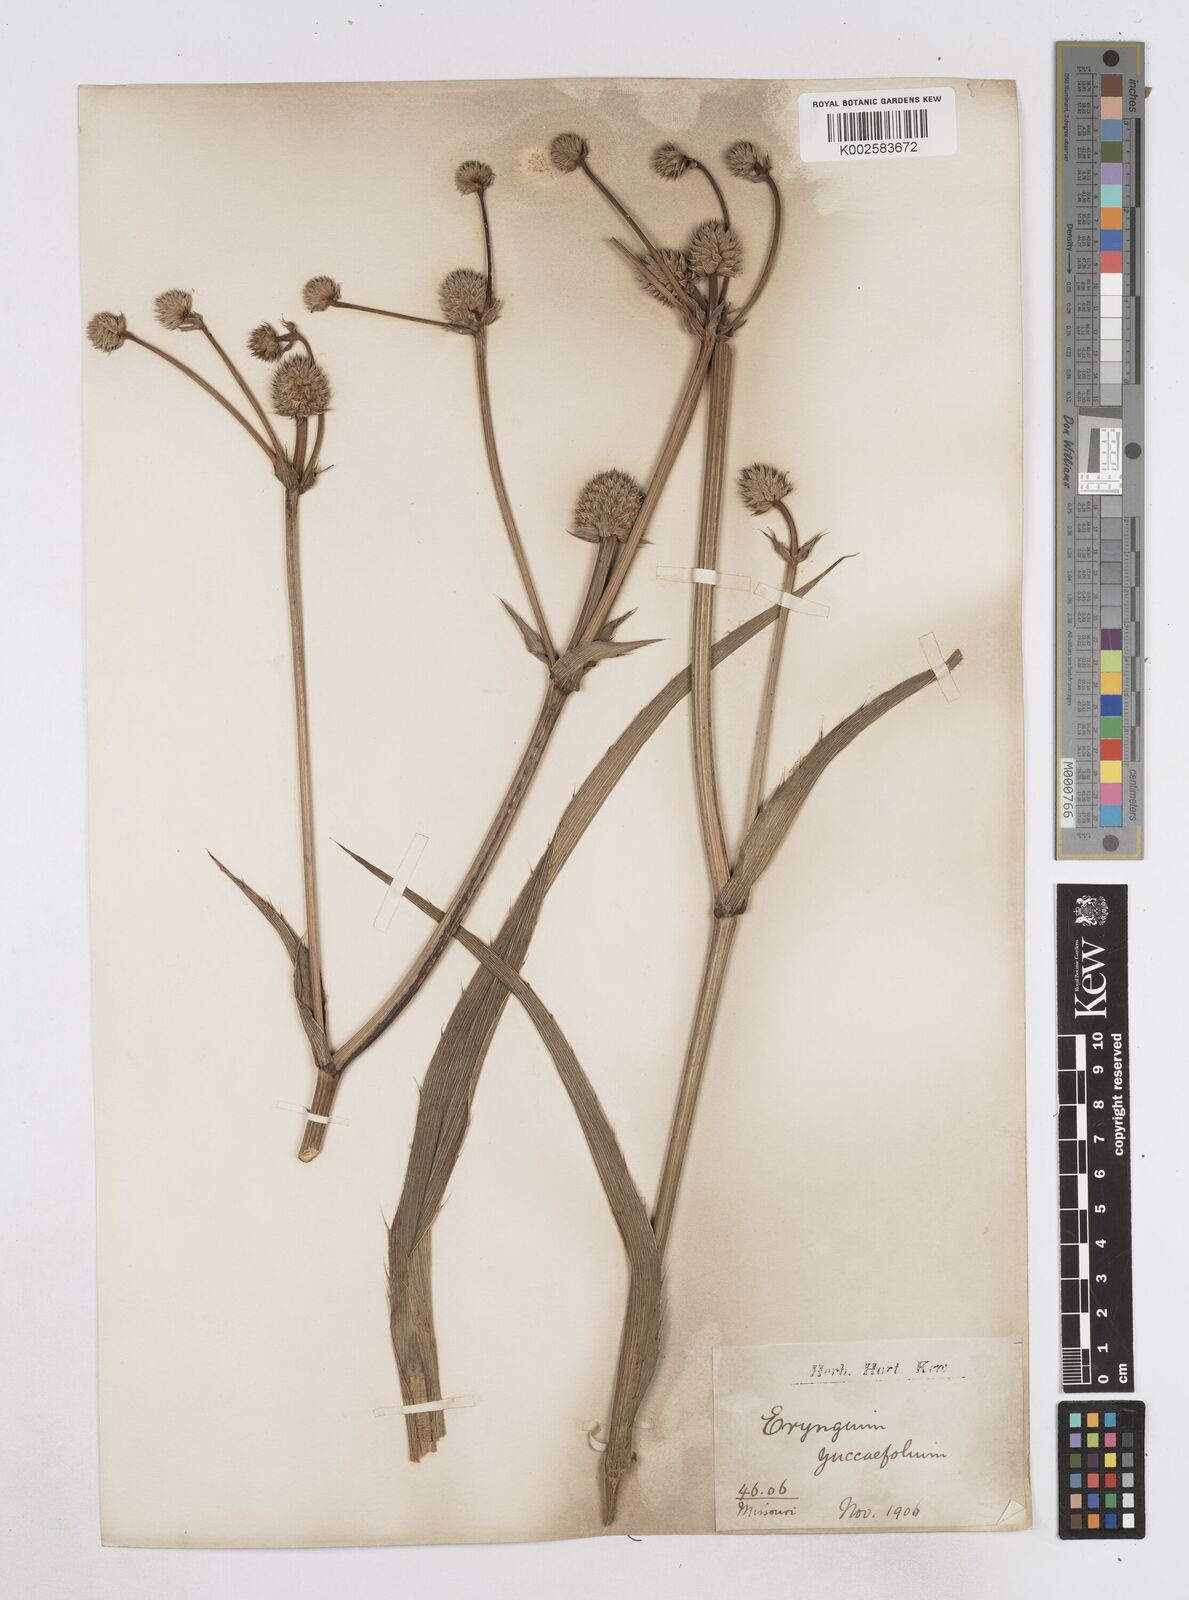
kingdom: Plantae
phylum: Tracheophyta
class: Magnoliopsida
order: Apiales
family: Apiaceae
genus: Eryngium
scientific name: Eryngium
